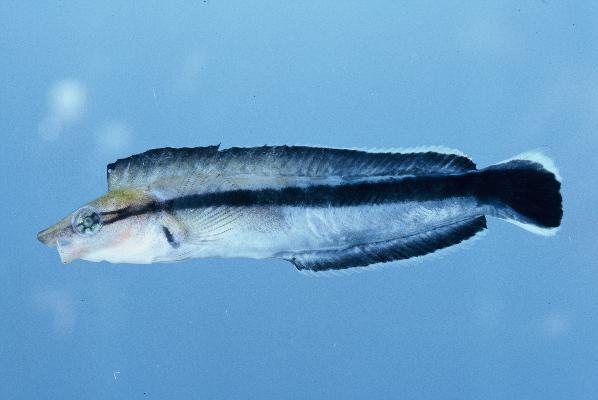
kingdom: Animalia
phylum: Chordata
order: Perciformes
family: Blenniidae
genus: Aspidontus
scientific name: Aspidontus tractus
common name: Mimic blenny
